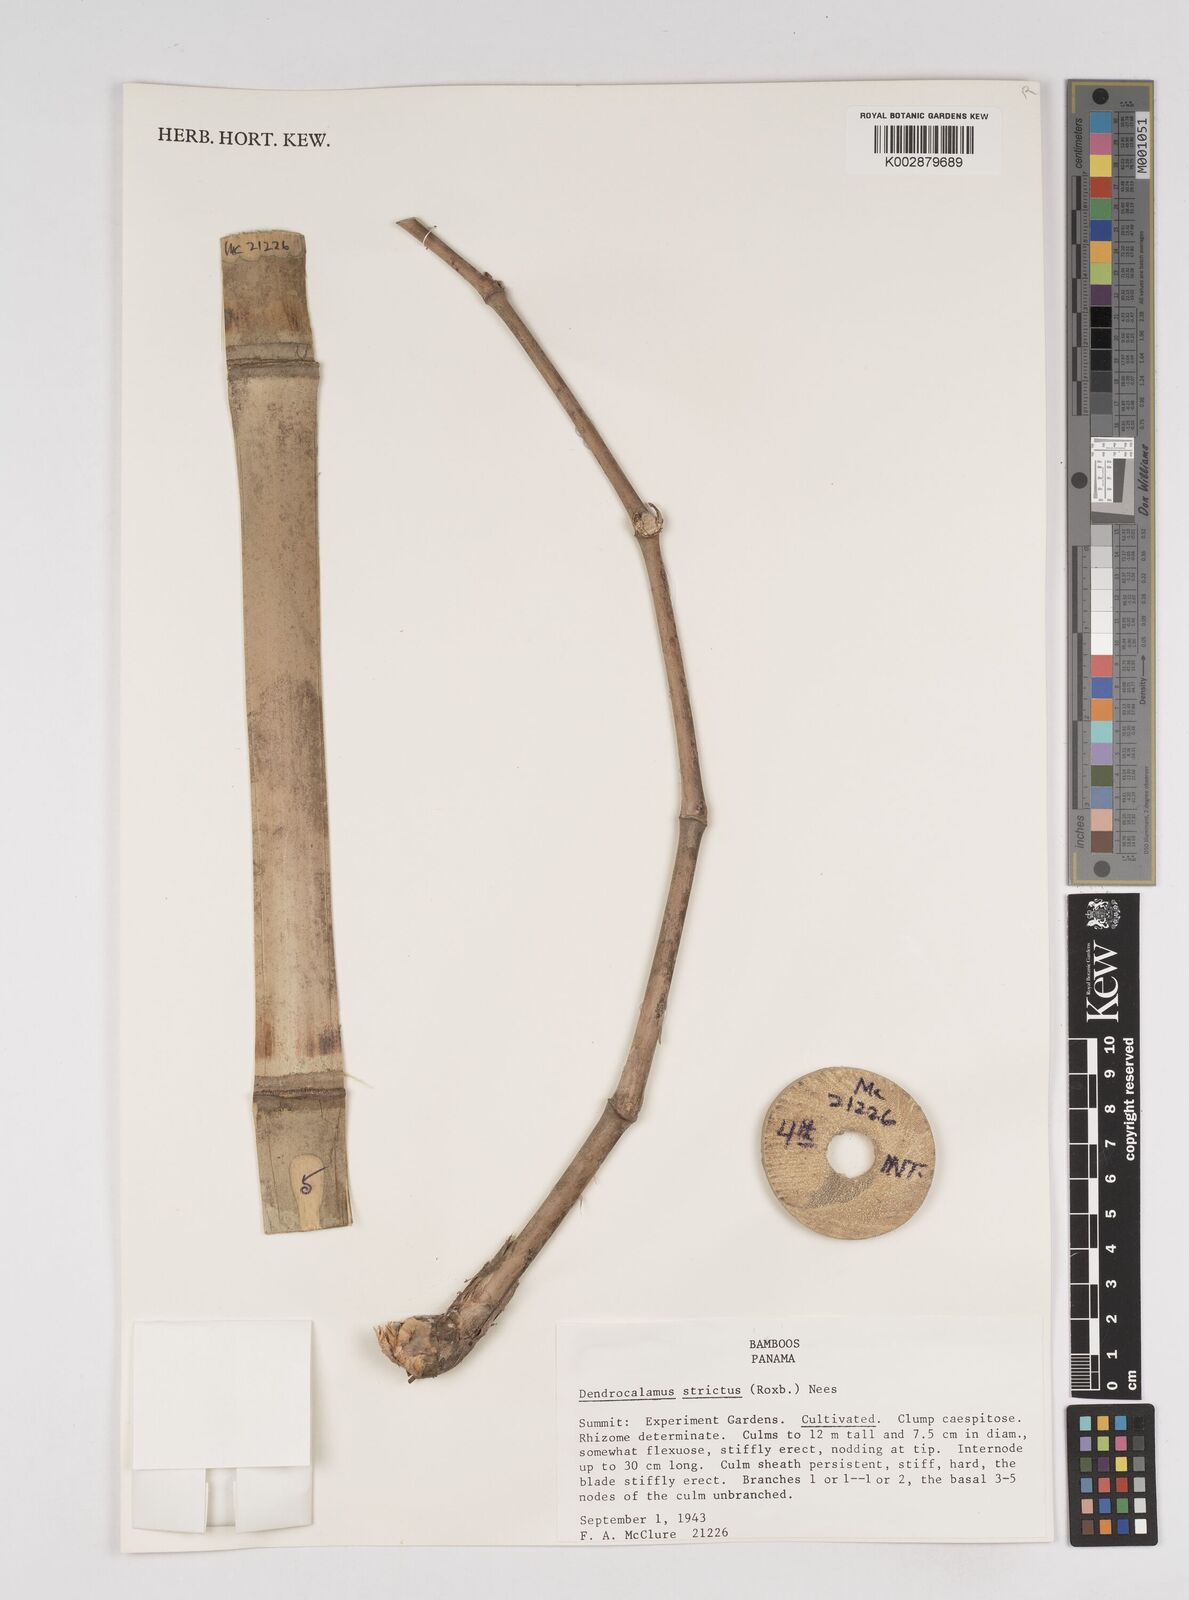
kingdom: Plantae
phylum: Tracheophyta
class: Liliopsida
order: Poales
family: Poaceae
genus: Dendrocalamus
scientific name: Dendrocalamus strictus
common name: Male bamboo
